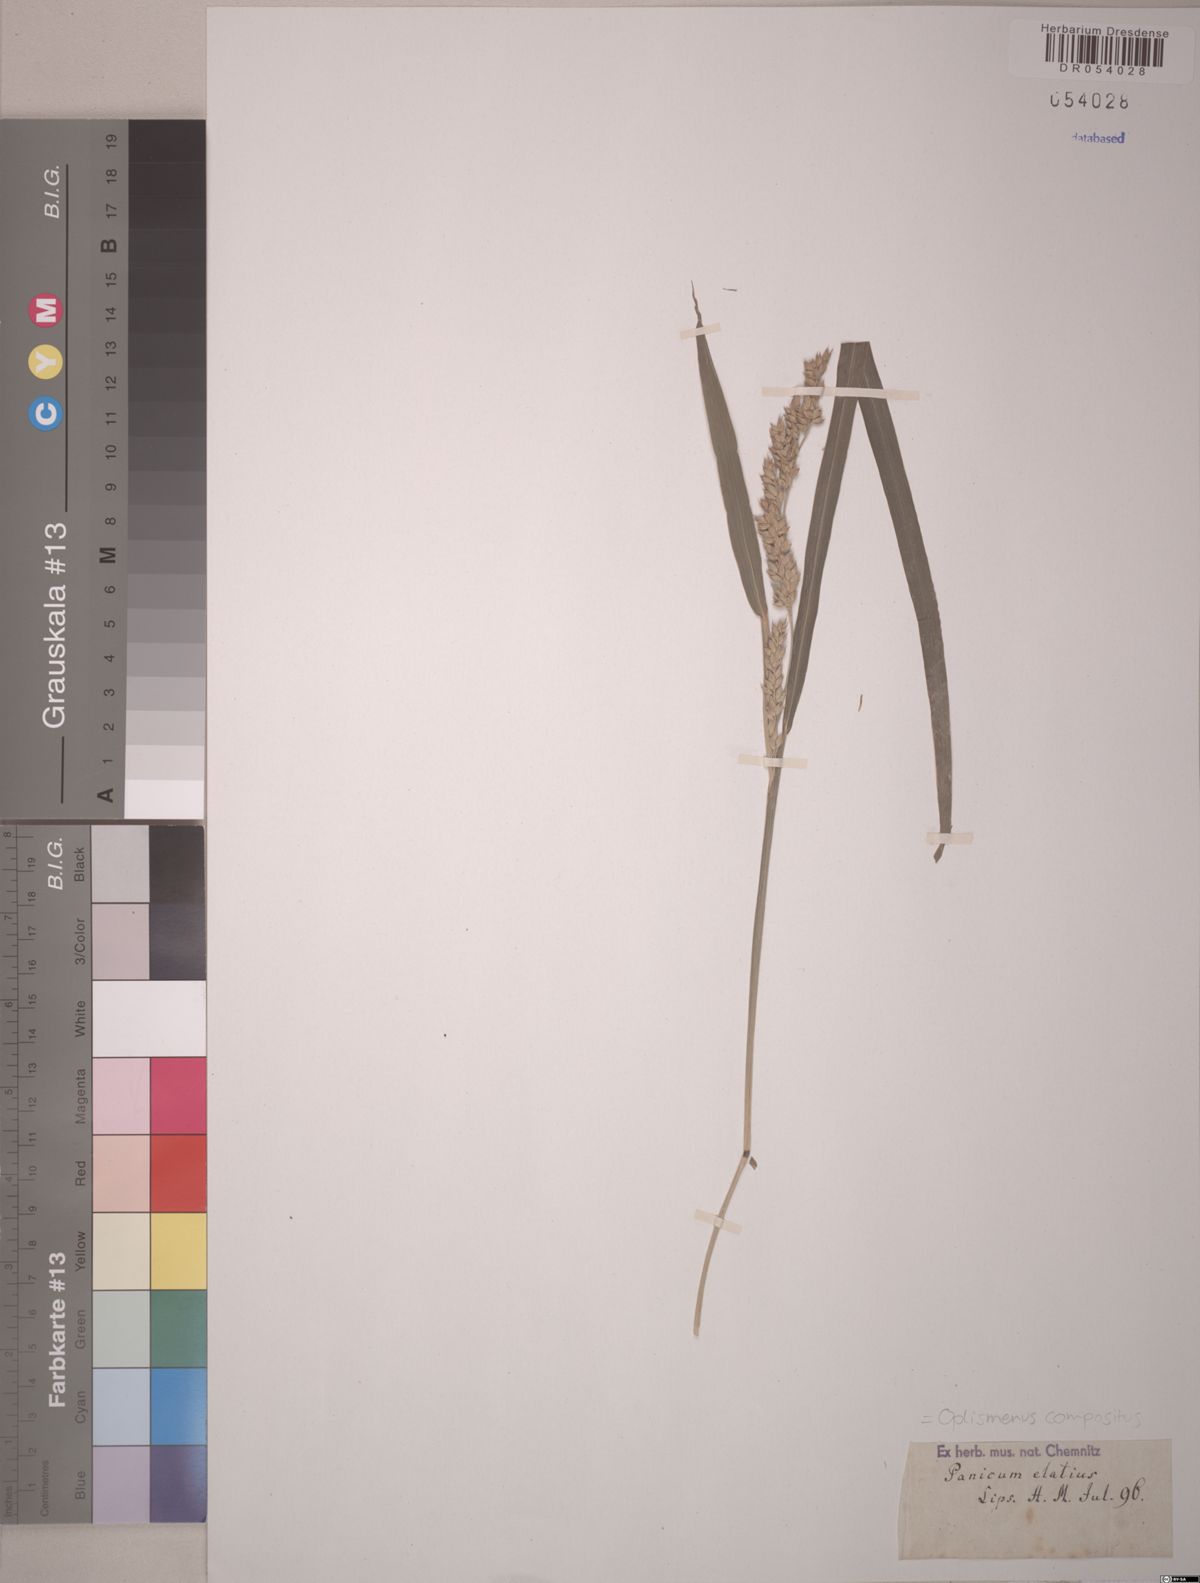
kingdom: Plantae
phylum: Tracheophyta
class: Liliopsida
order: Poales
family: Poaceae
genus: Oplismenus
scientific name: Oplismenus compositus
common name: Running mountain grass
